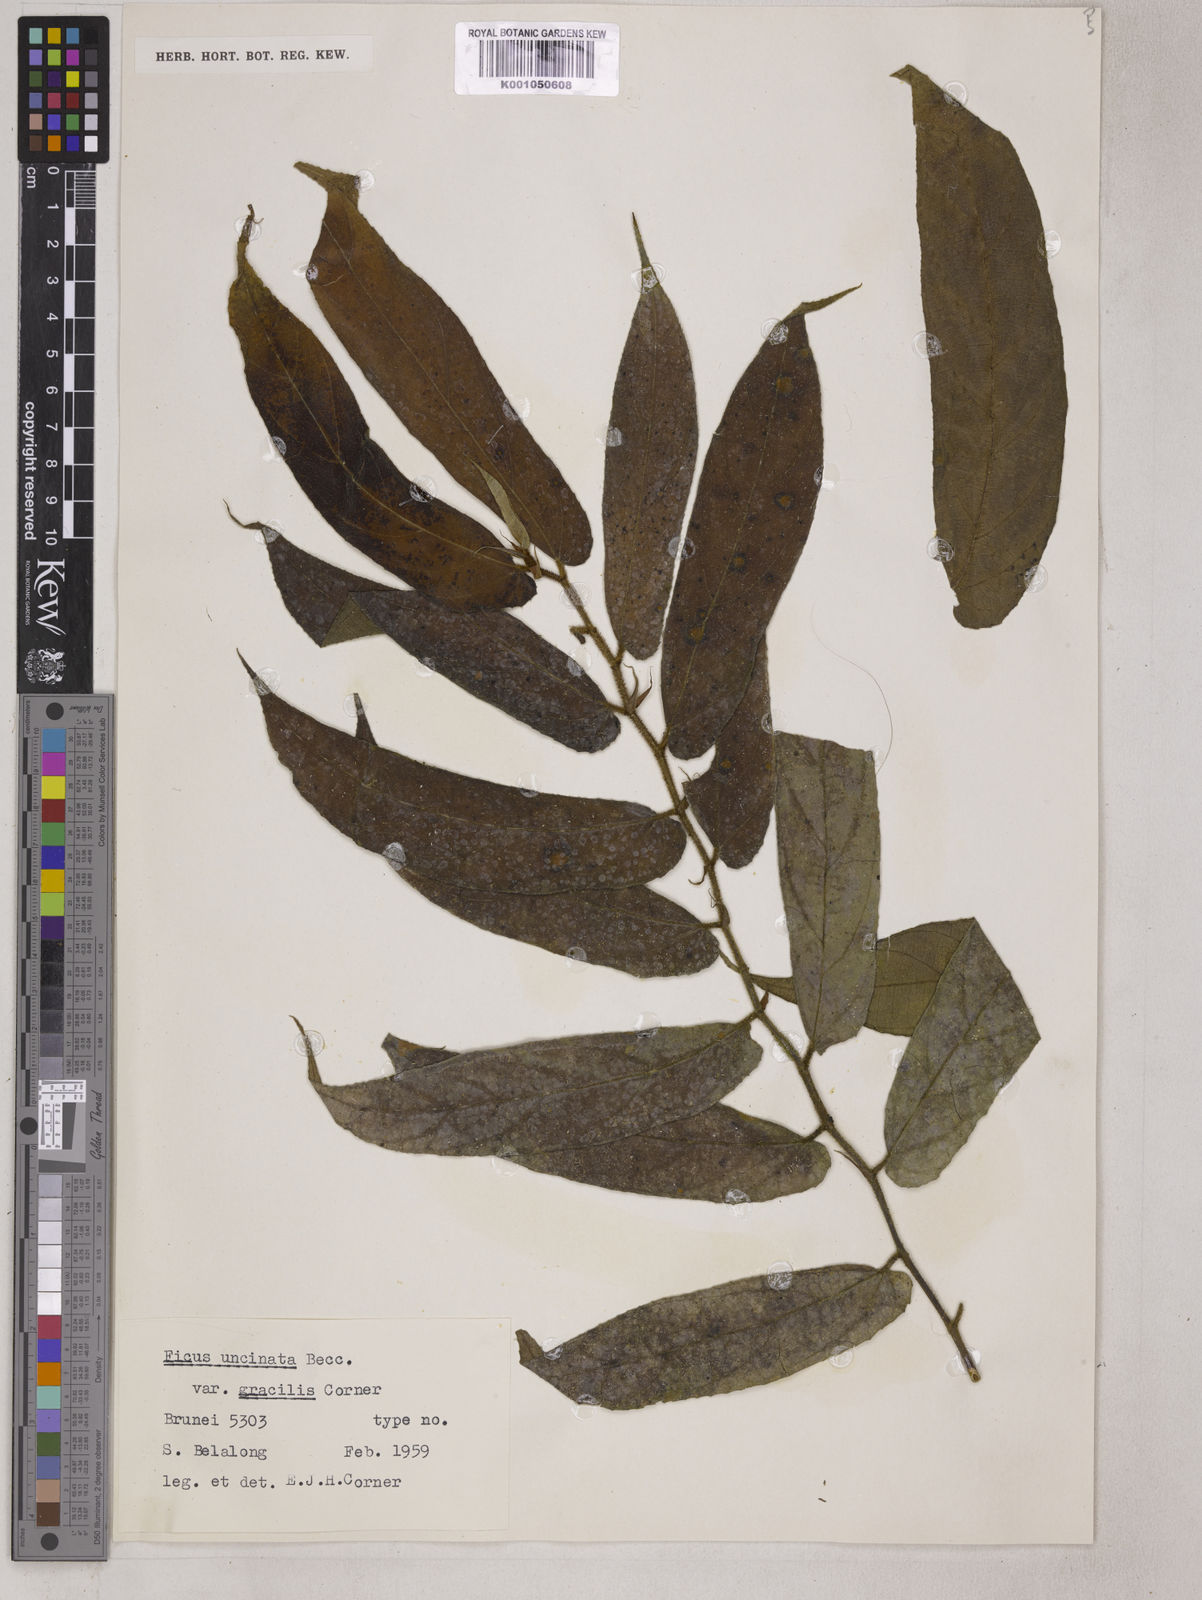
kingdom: Plantae
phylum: Tracheophyta
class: Magnoliopsida
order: Rosales
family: Moraceae
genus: Ficus
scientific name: Ficus uncinata
